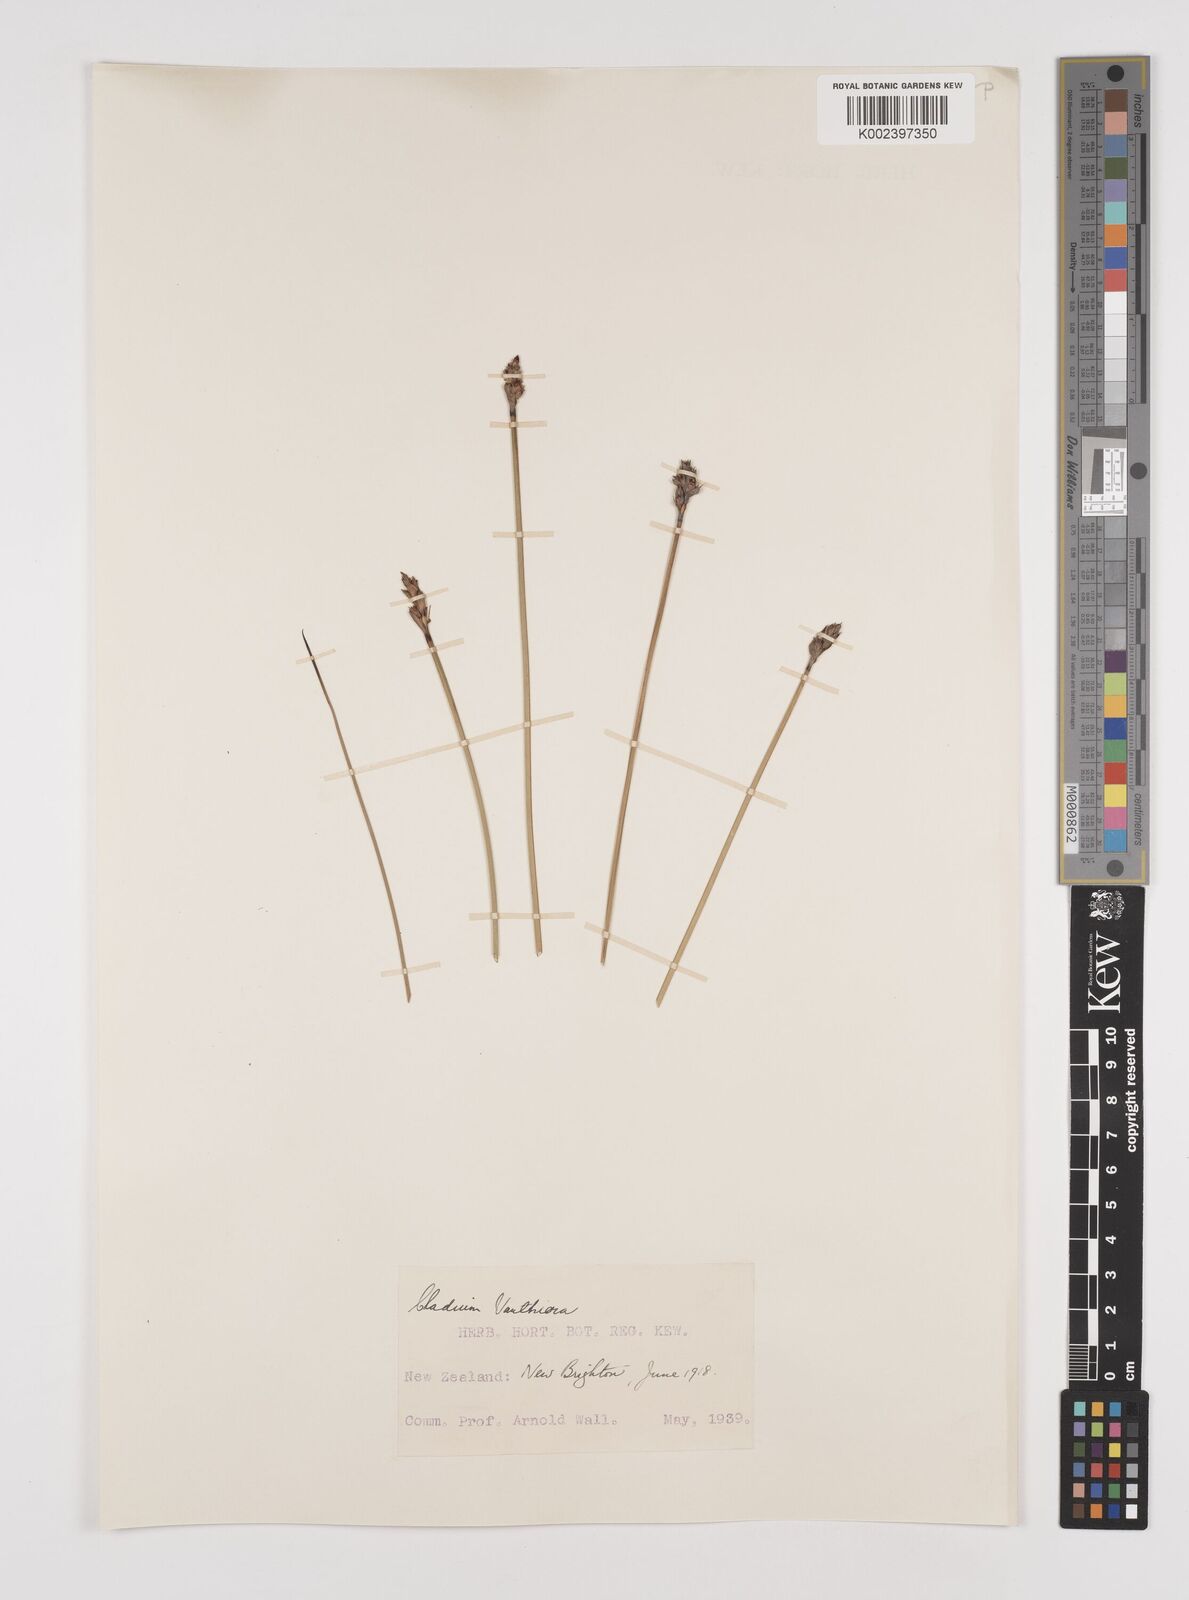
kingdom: Plantae
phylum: Tracheophyta
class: Liliopsida
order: Poales
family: Cyperaceae
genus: Lepidosperma
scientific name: Lepidosperma australe
